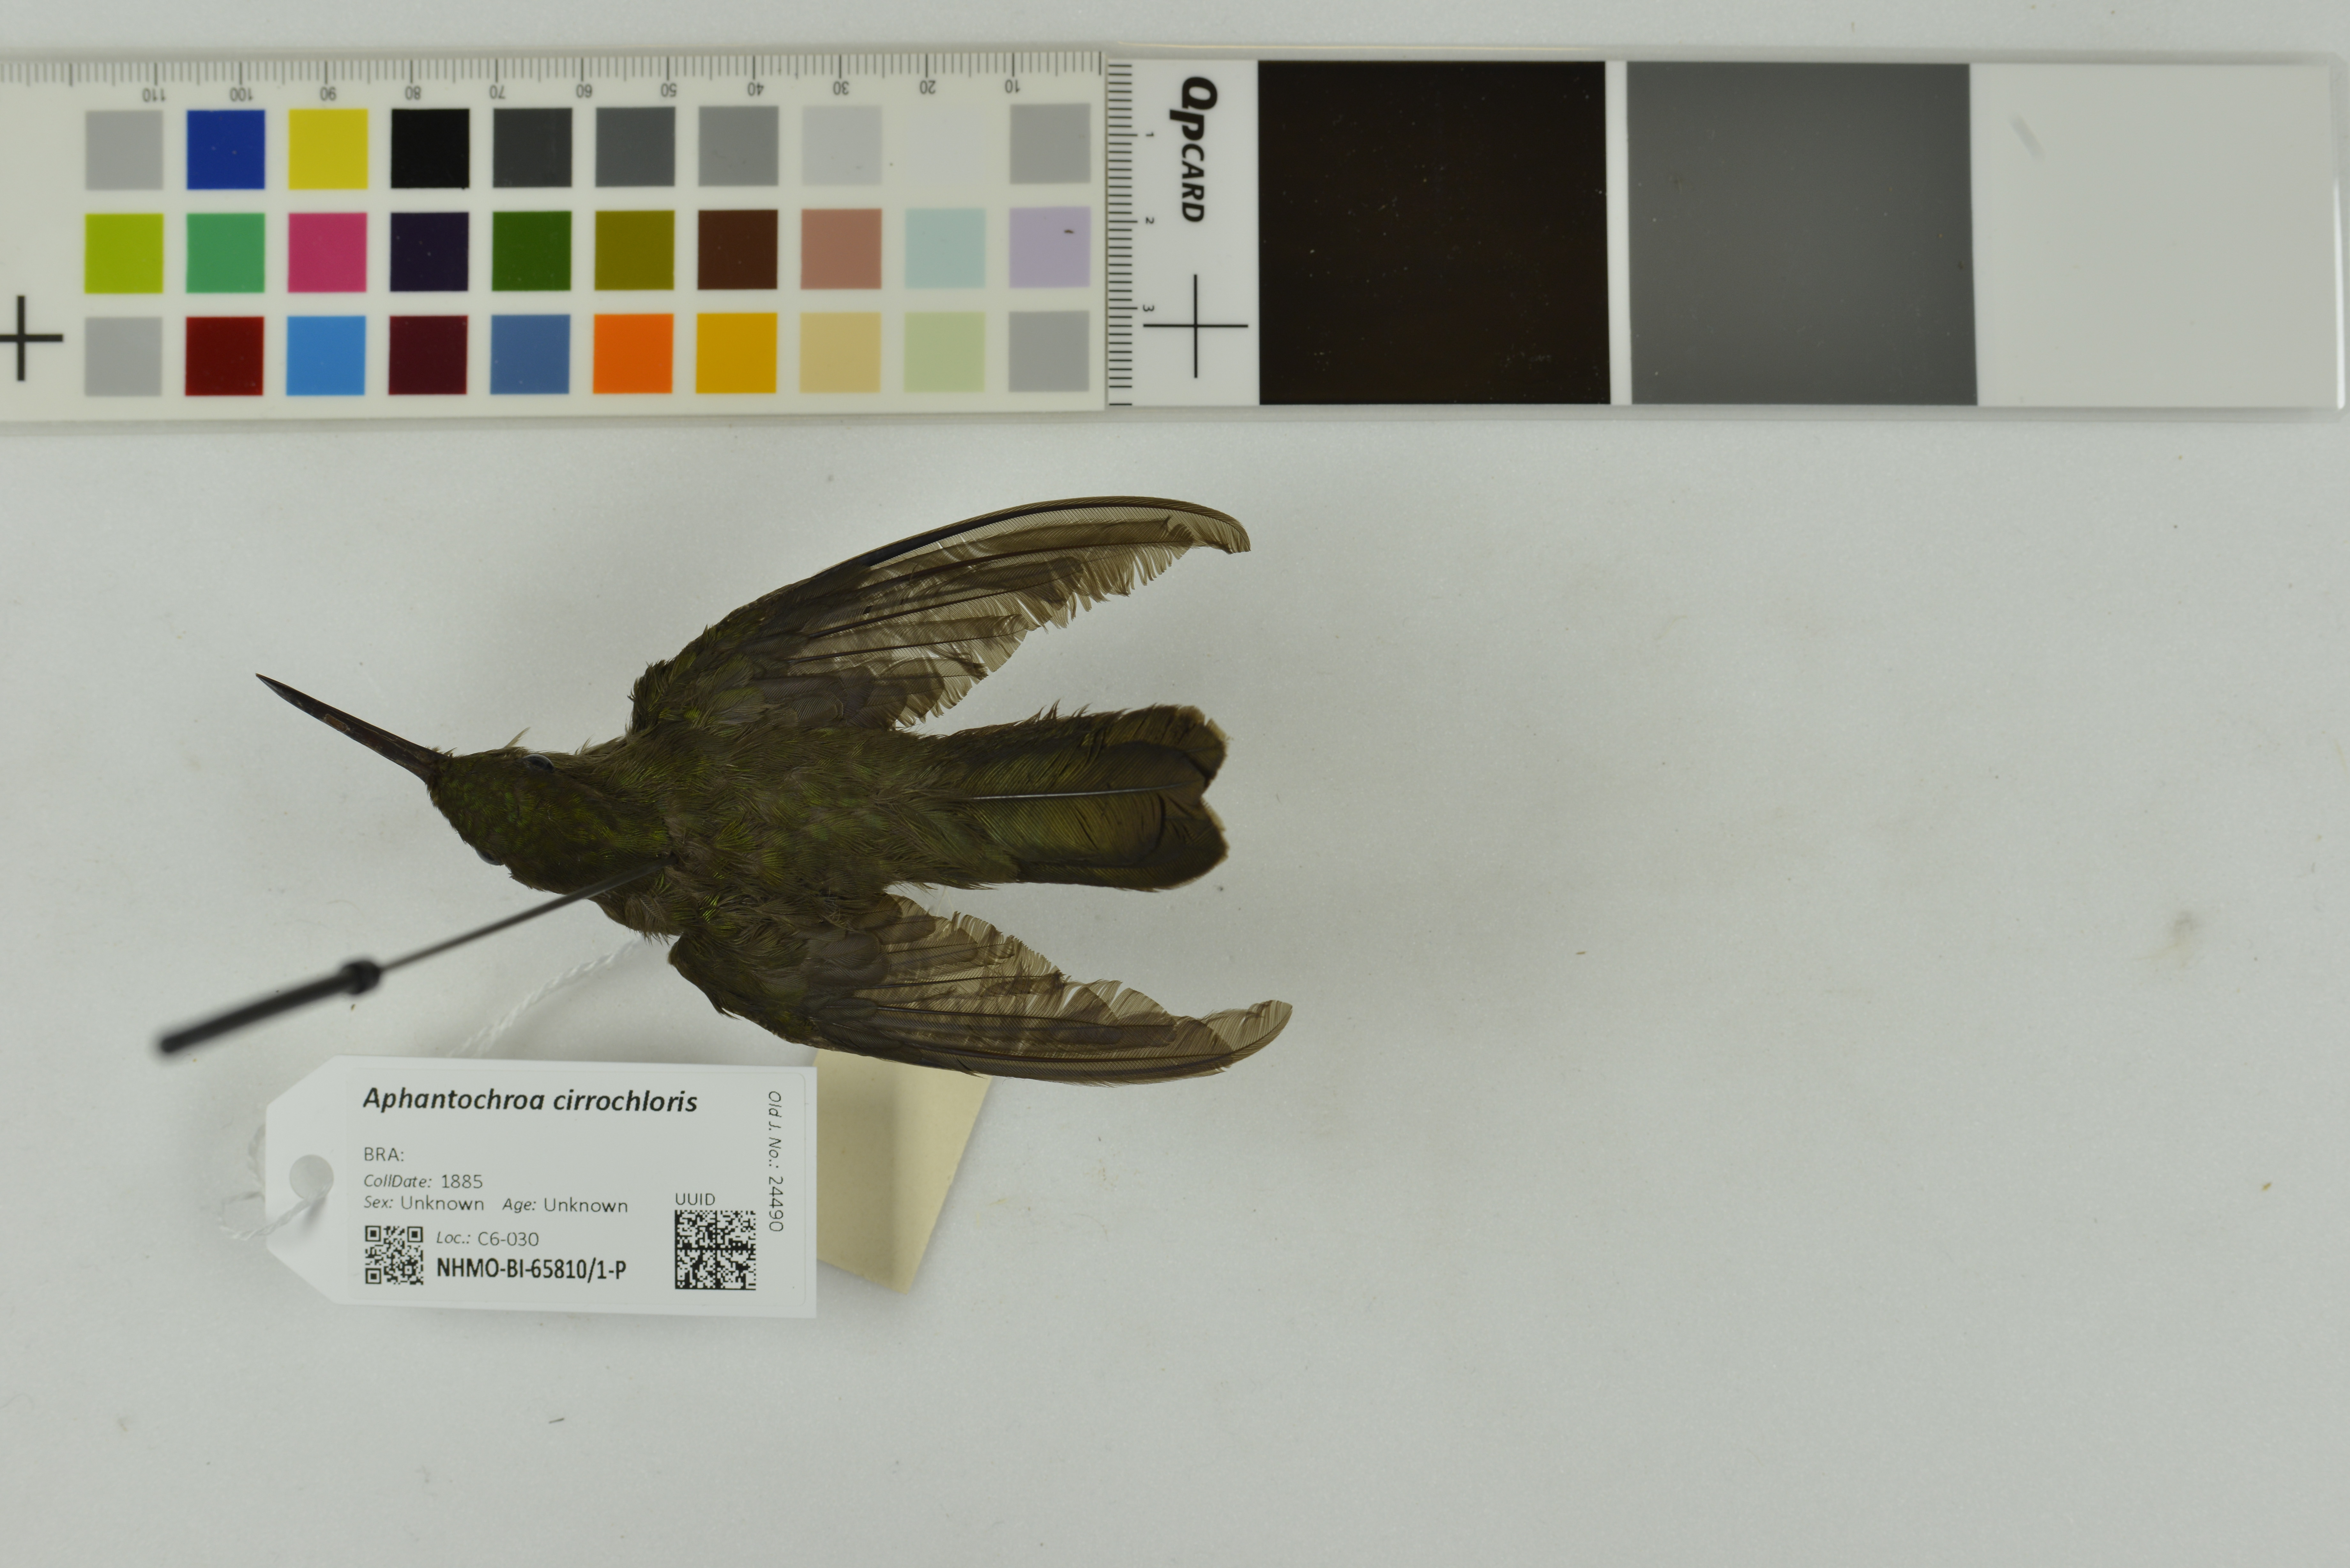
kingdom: Animalia
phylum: Chordata
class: Aves
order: Apodiformes
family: Trochilidae
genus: Eupetomena
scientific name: Eupetomena cirrochloris
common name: Sombre hummingbird
